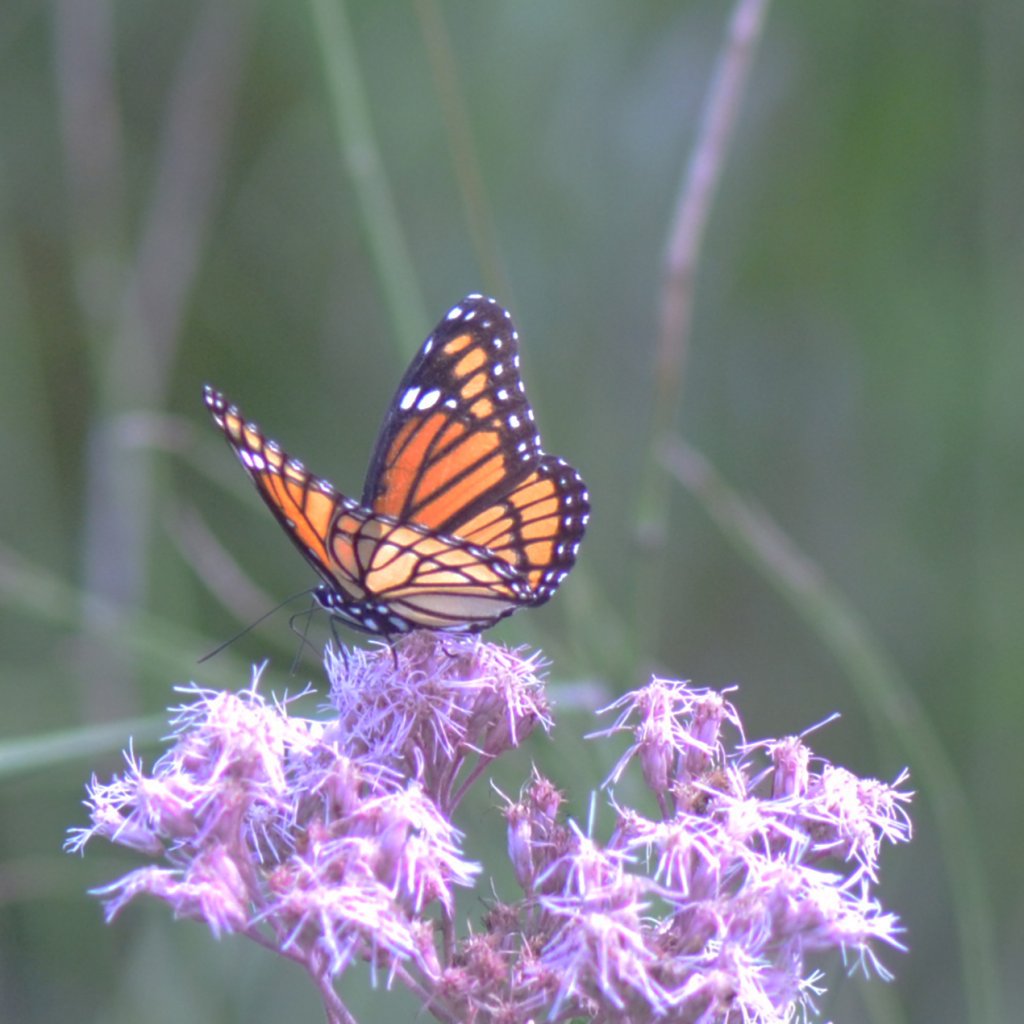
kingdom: Animalia
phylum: Arthropoda
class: Insecta
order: Lepidoptera
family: Nymphalidae
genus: Limenitis
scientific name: Limenitis archippus
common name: Viceroy
